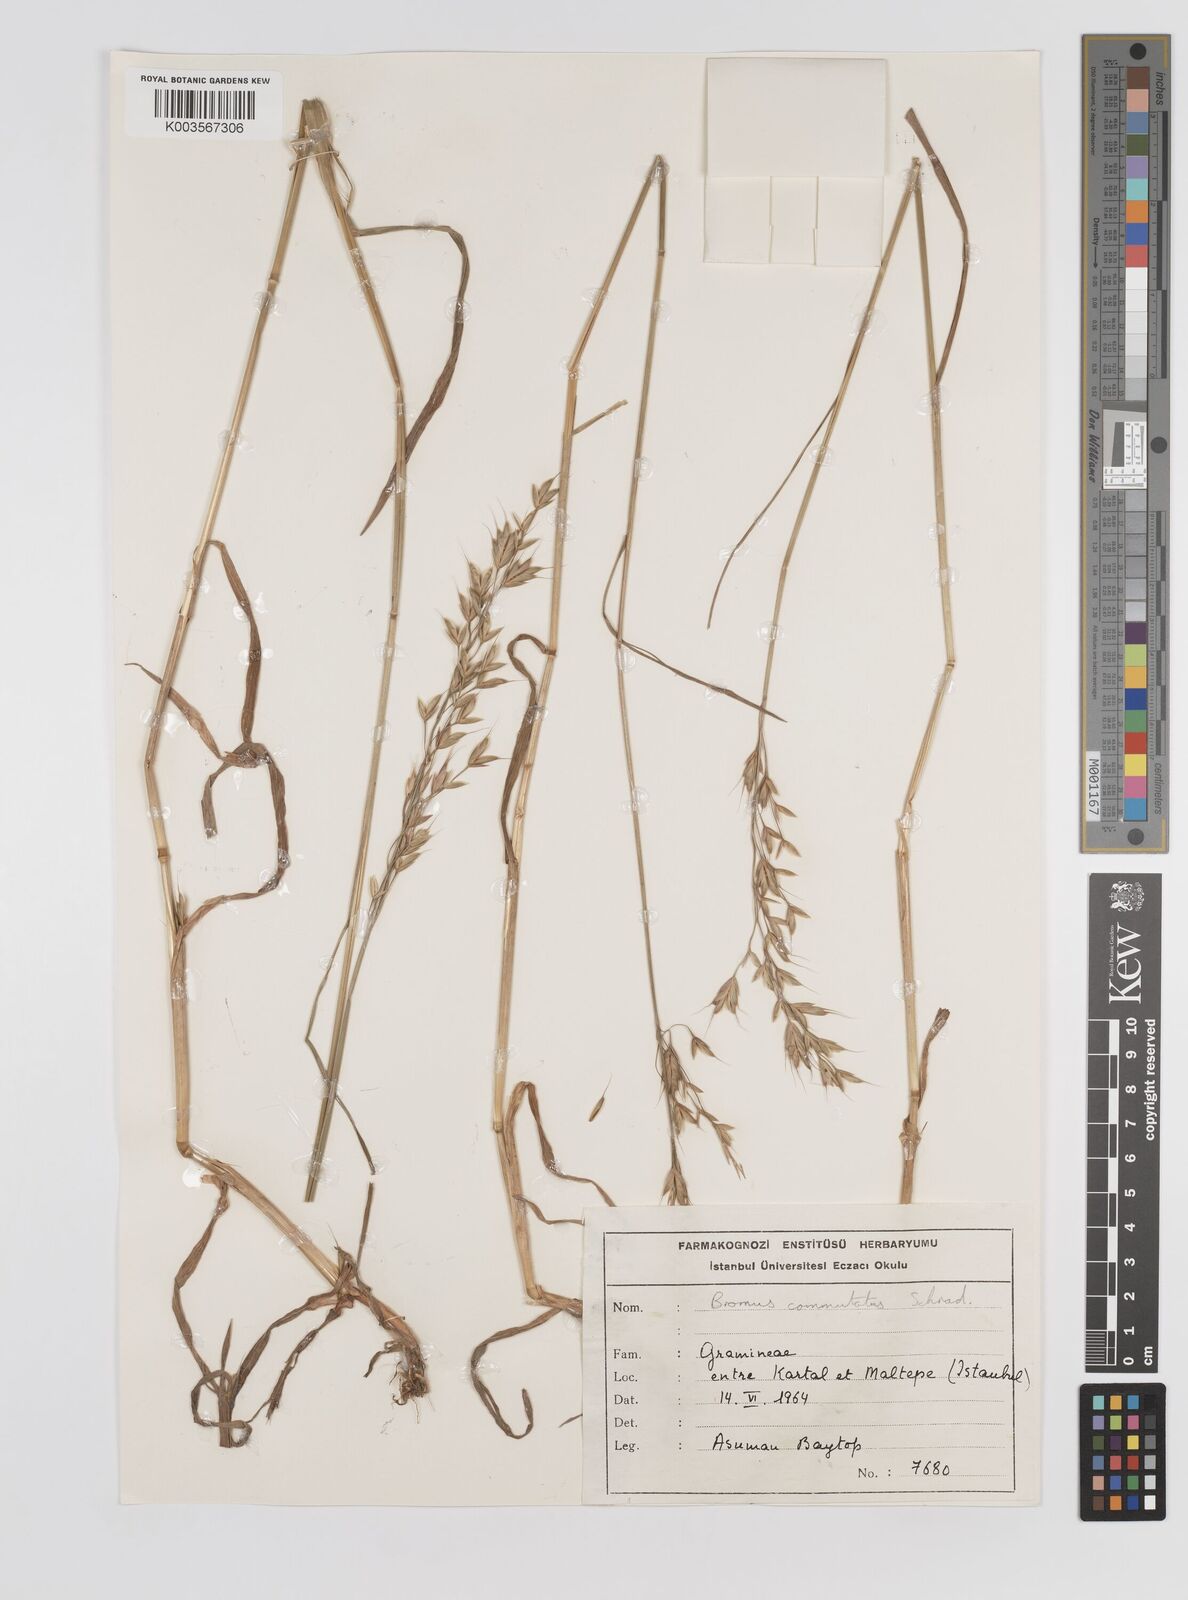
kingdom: Plantae
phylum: Tracheophyta
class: Liliopsida
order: Poales
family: Poaceae
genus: Bromus
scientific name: Bromus racemosus
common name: Bald brome
